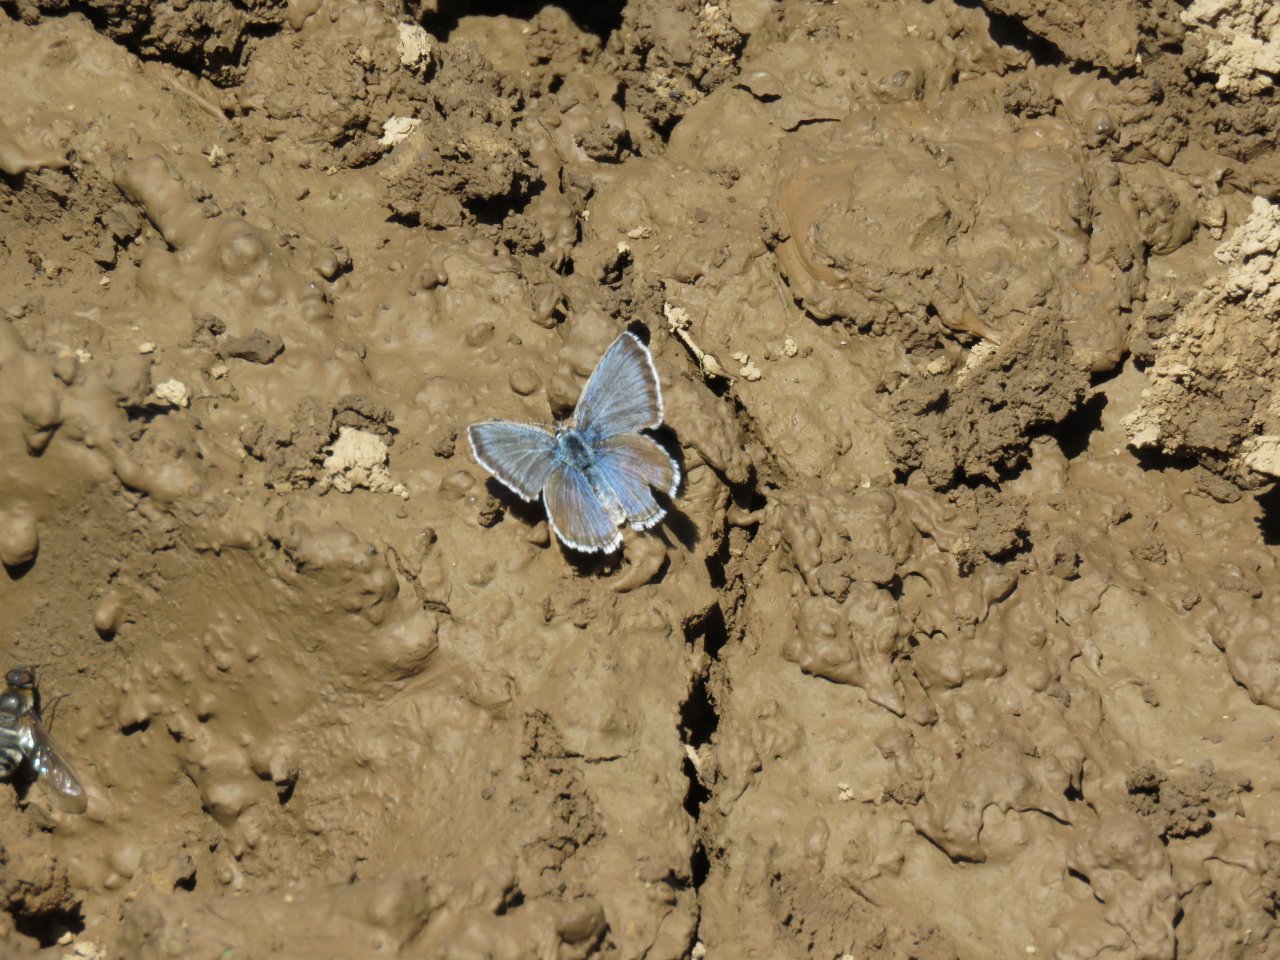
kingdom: Animalia
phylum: Arthropoda
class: Insecta
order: Lepidoptera
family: Lycaenidae
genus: Icaricia
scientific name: Icaricia icarioides
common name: Boisduval's Blue
